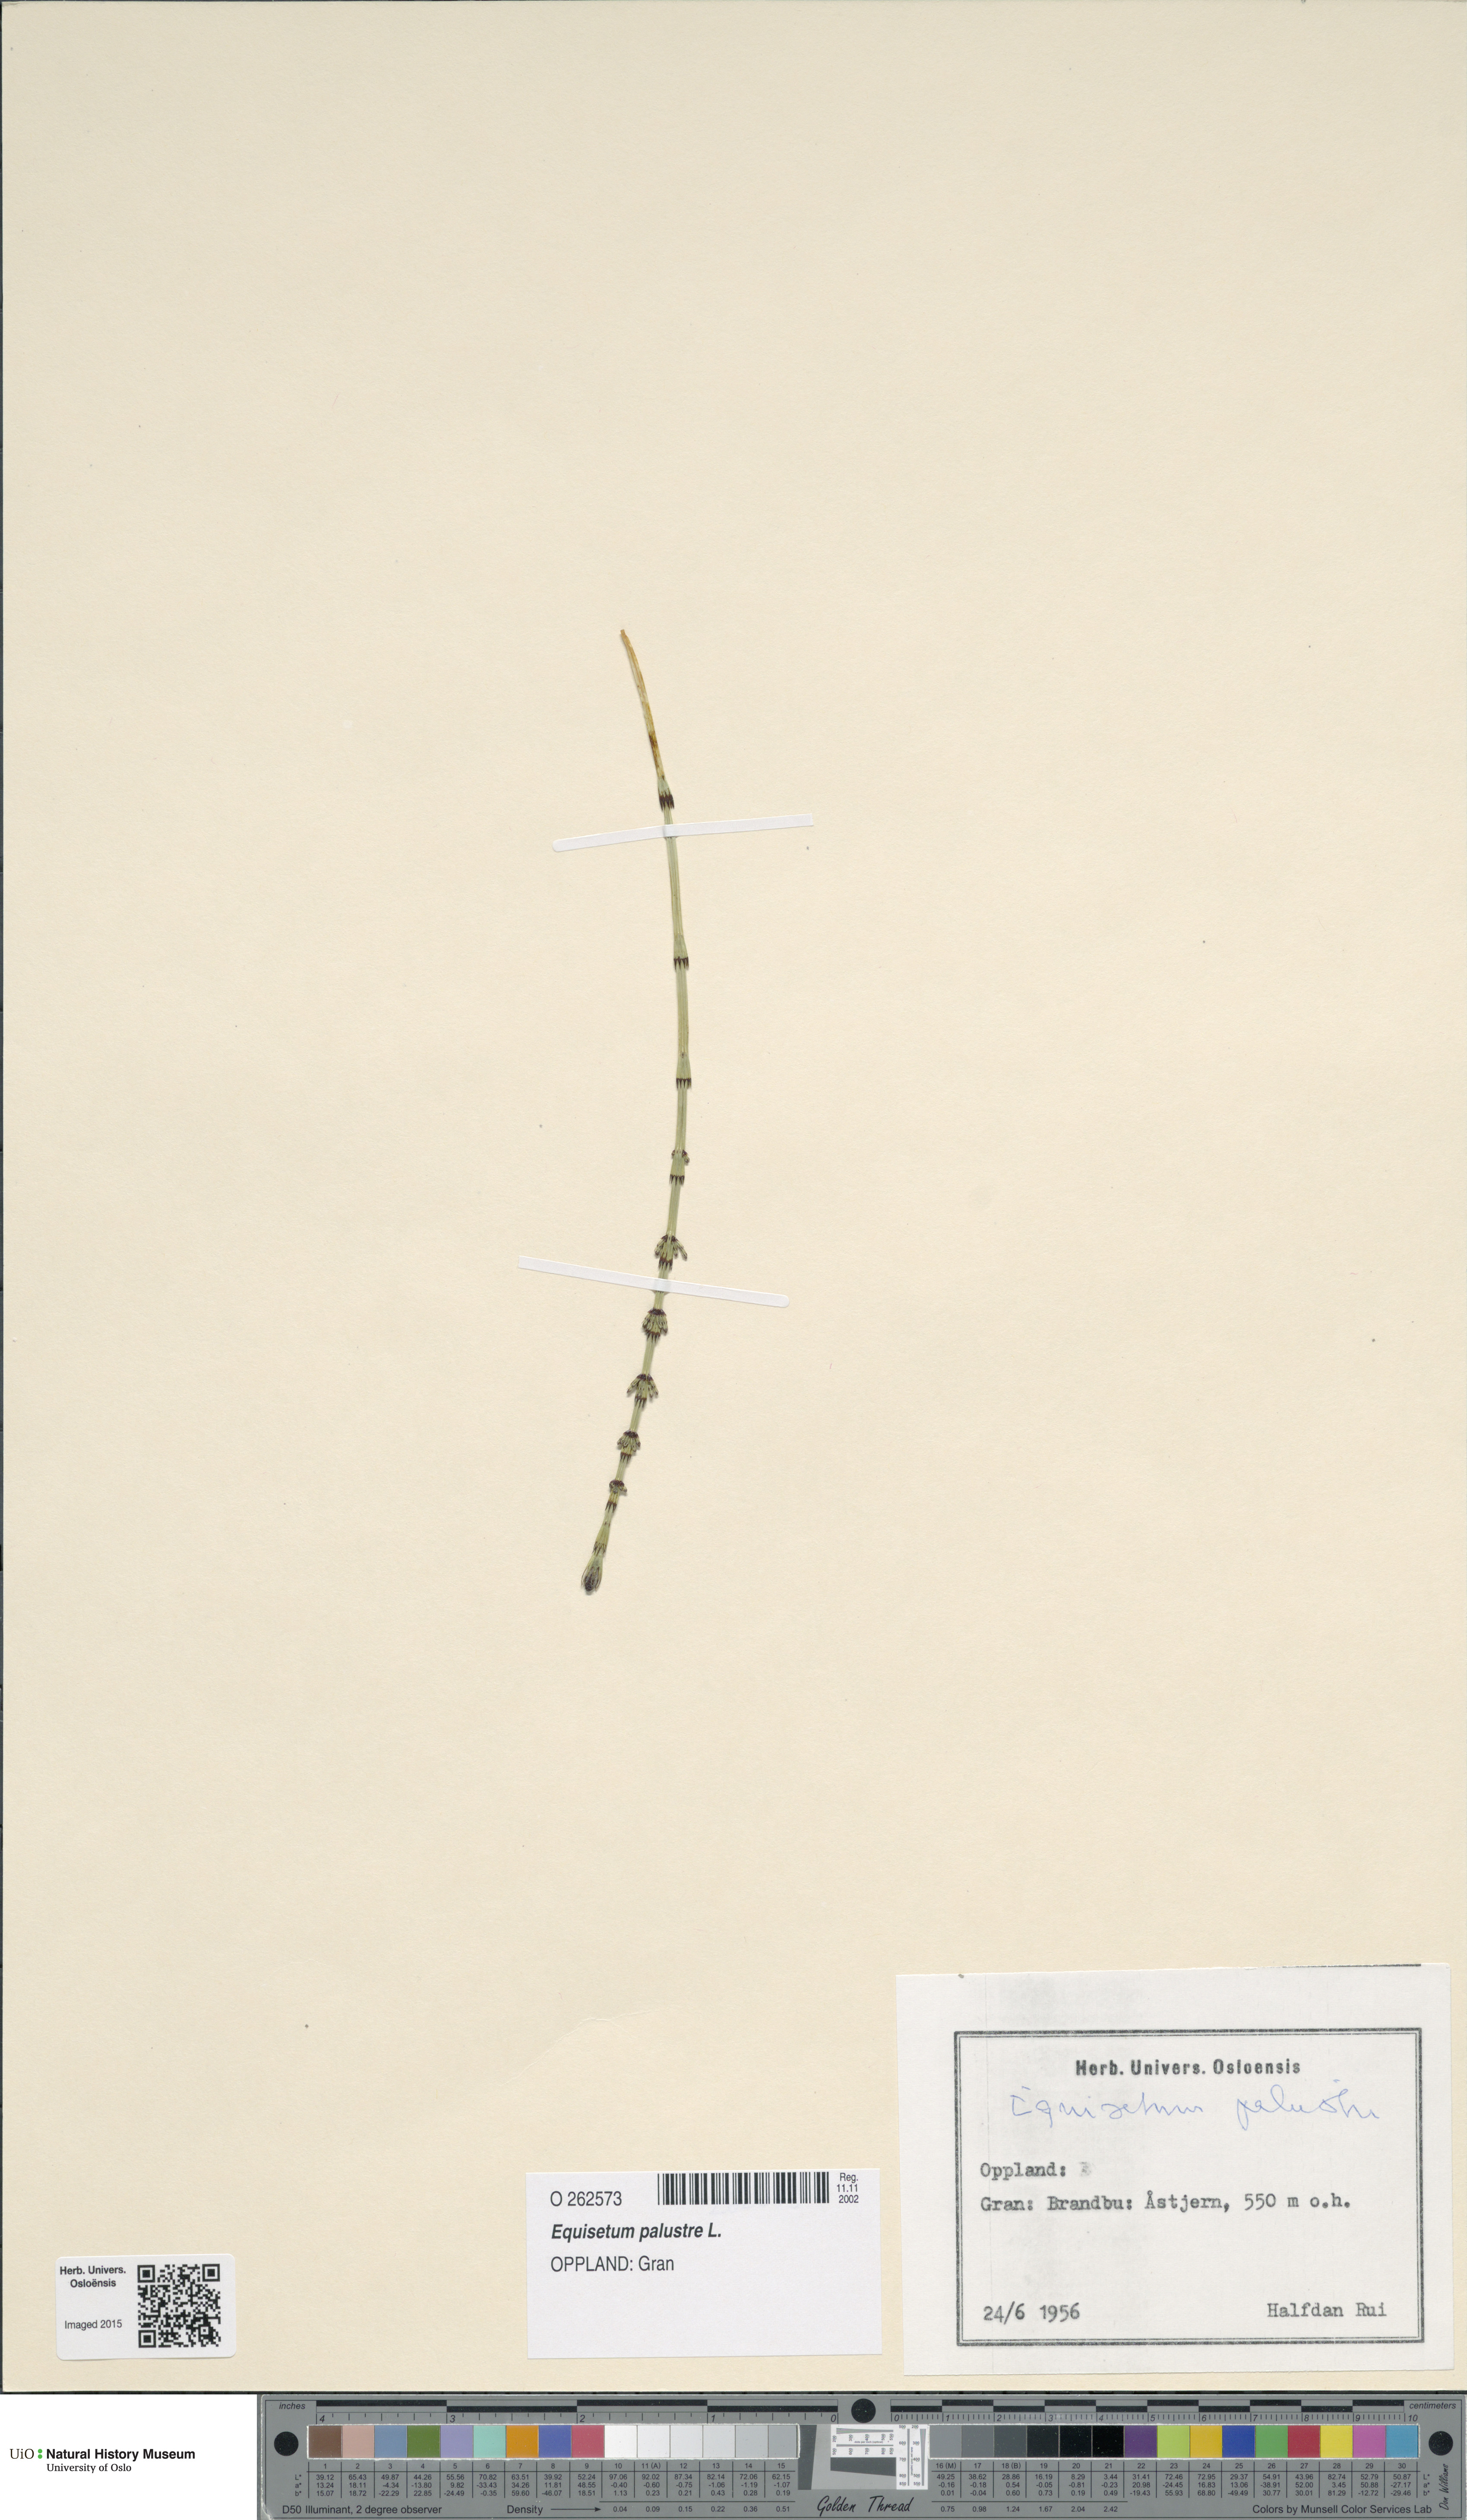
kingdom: Plantae
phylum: Tracheophyta
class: Polypodiopsida
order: Equisetales
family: Equisetaceae
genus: Equisetum
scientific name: Equisetum palustre
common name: Marsh horsetail
